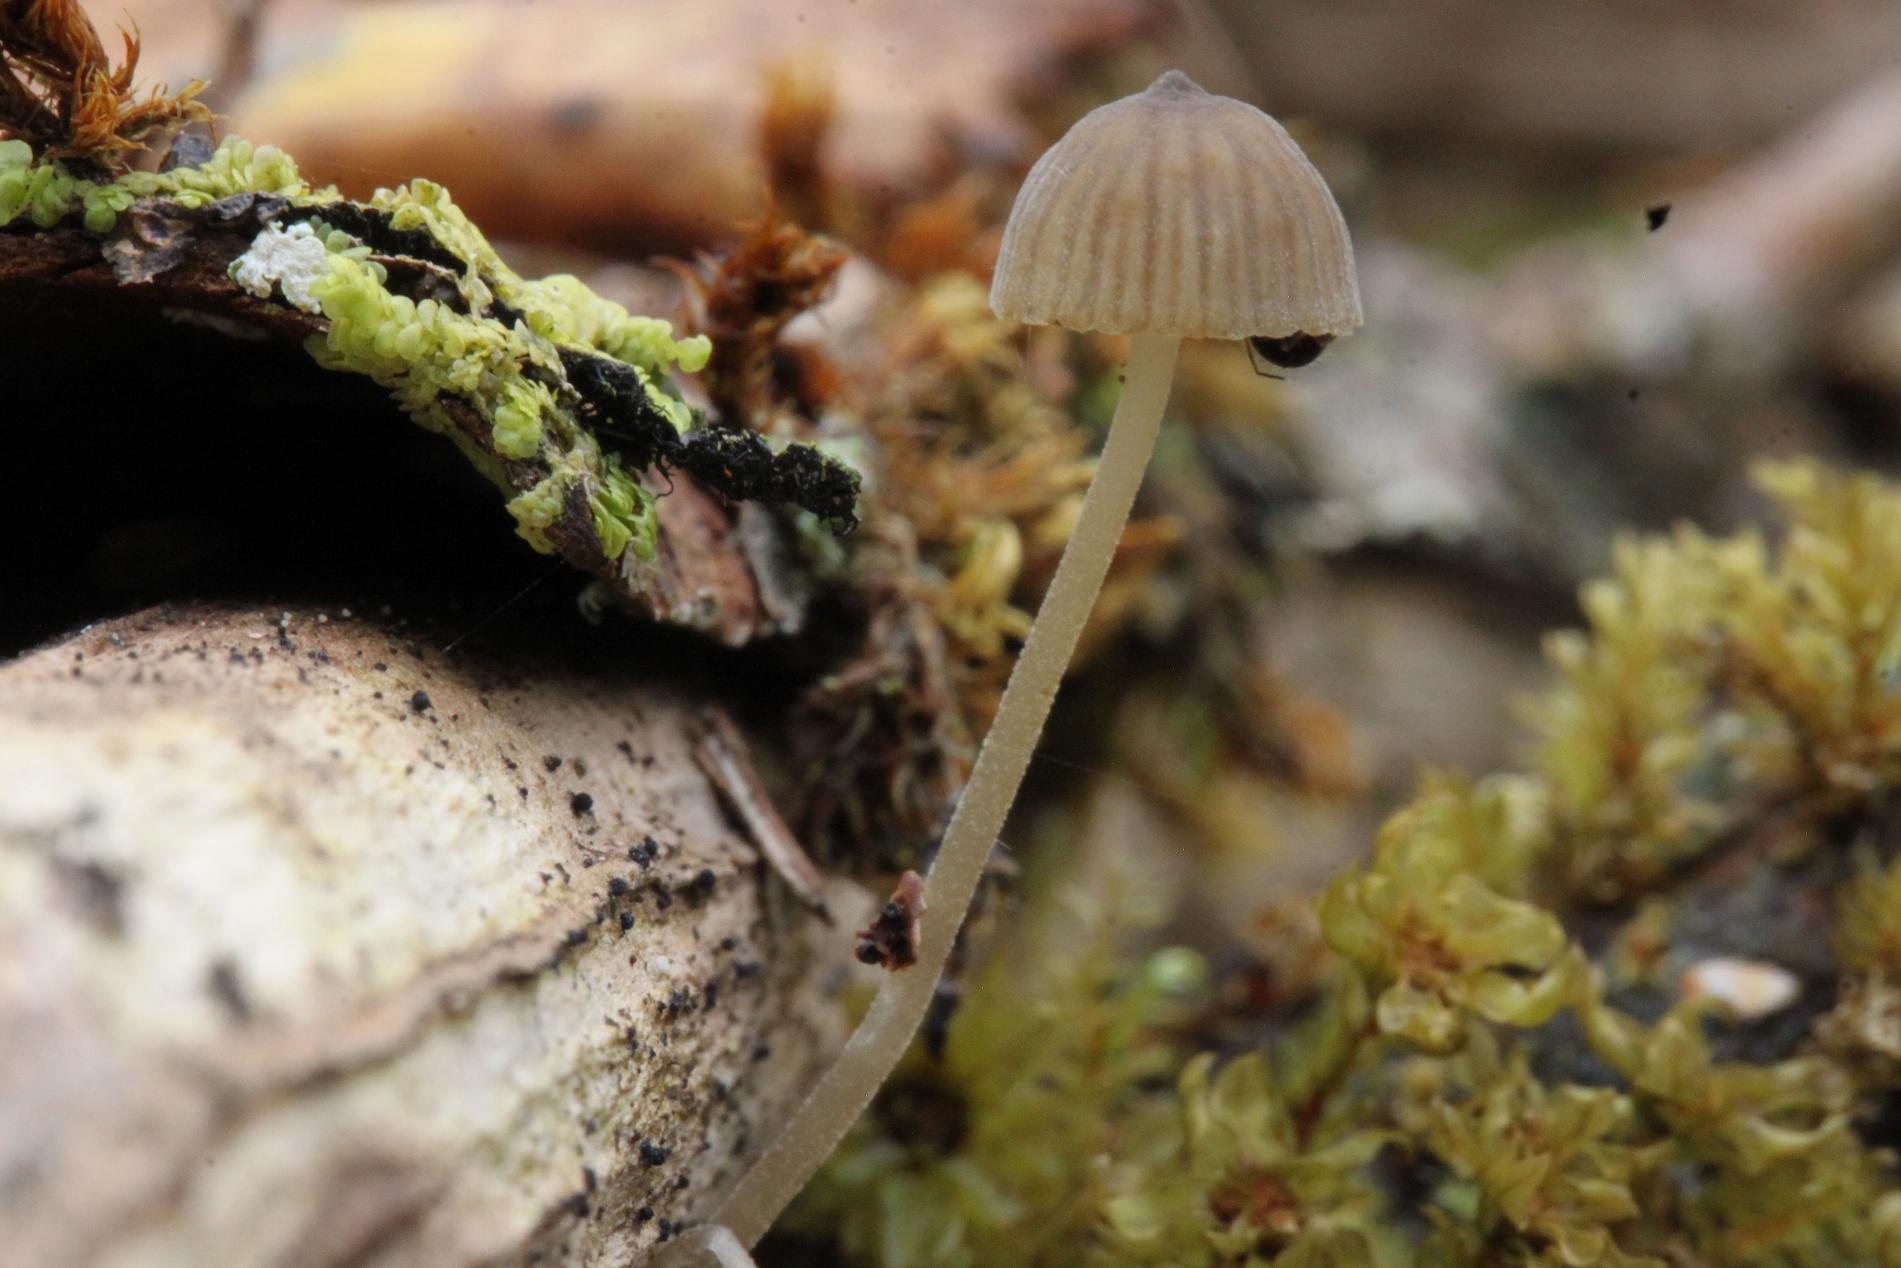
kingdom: Fungi
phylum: Basidiomycota
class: Agaricomycetes
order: Agaricales
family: Porotheleaceae
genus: Phloeomana
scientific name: Phloeomana speirea
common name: kvist-huesvamp
